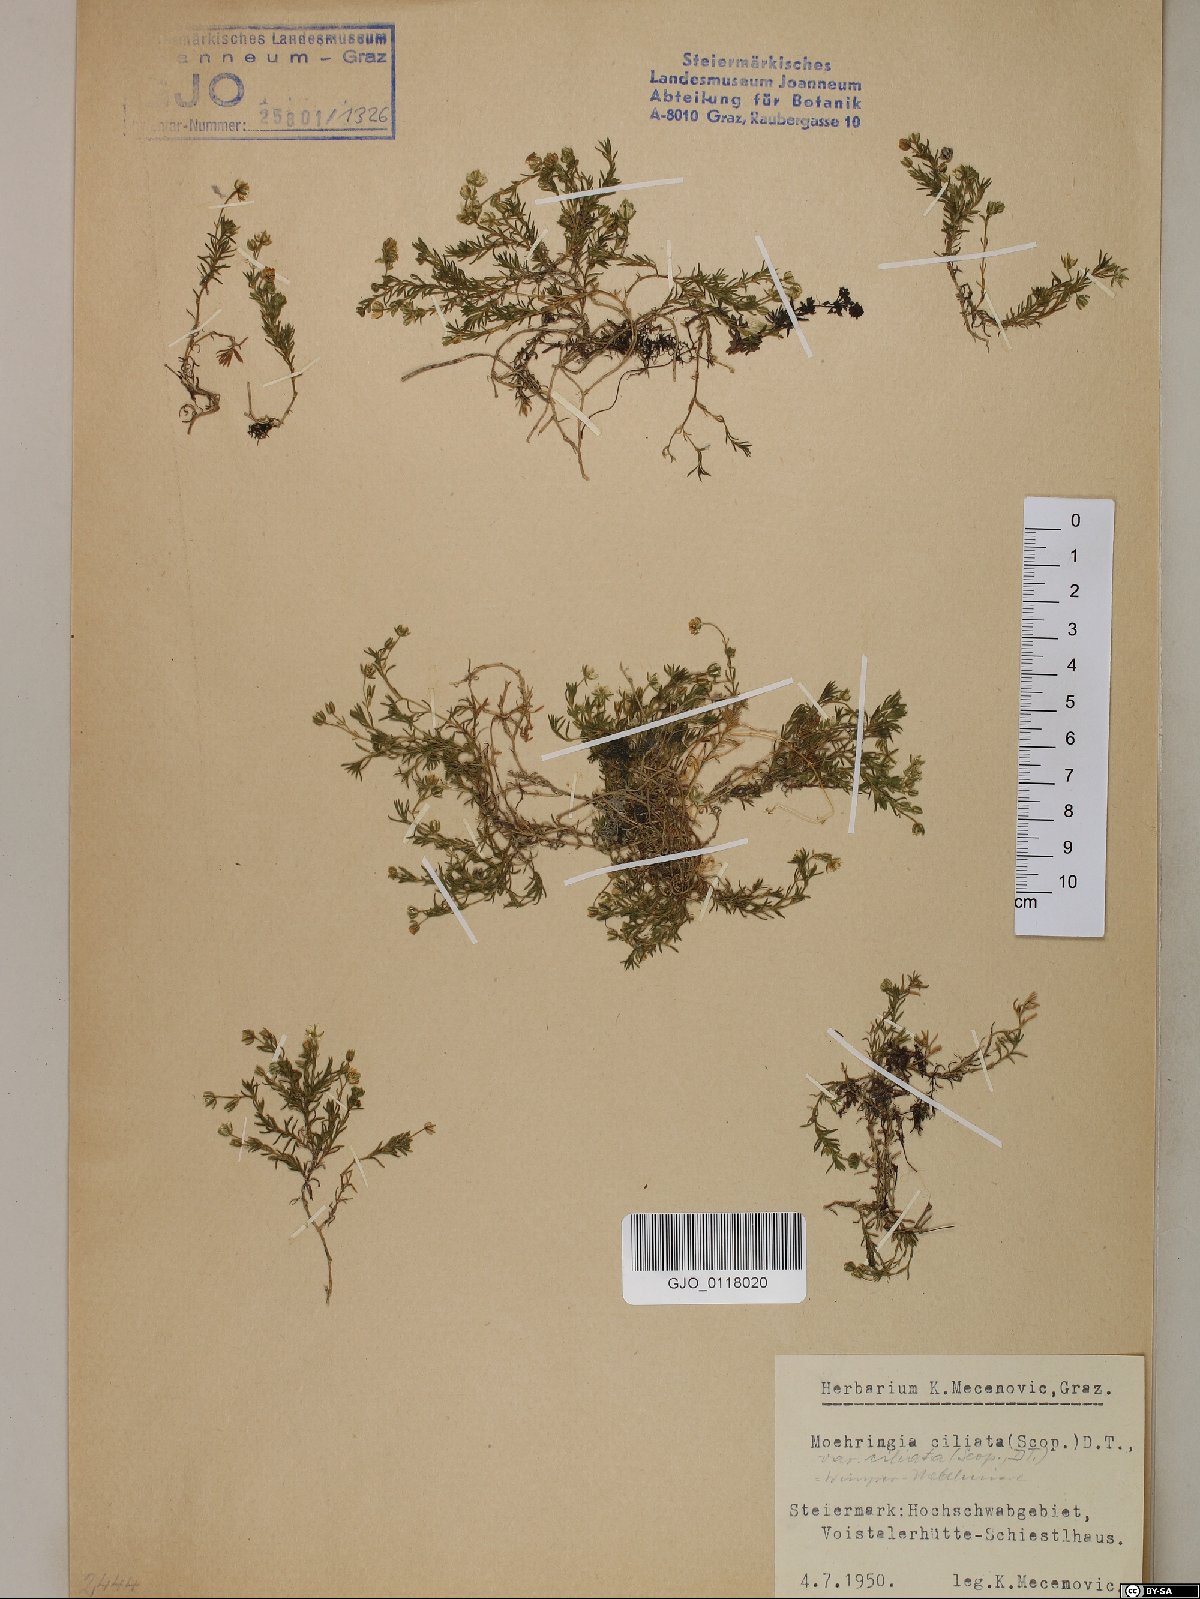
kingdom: Plantae
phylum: Tracheophyta
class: Magnoliopsida
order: Caryophyllales
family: Caryophyllaceae
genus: Moehringia
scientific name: Moehringia ciliata
